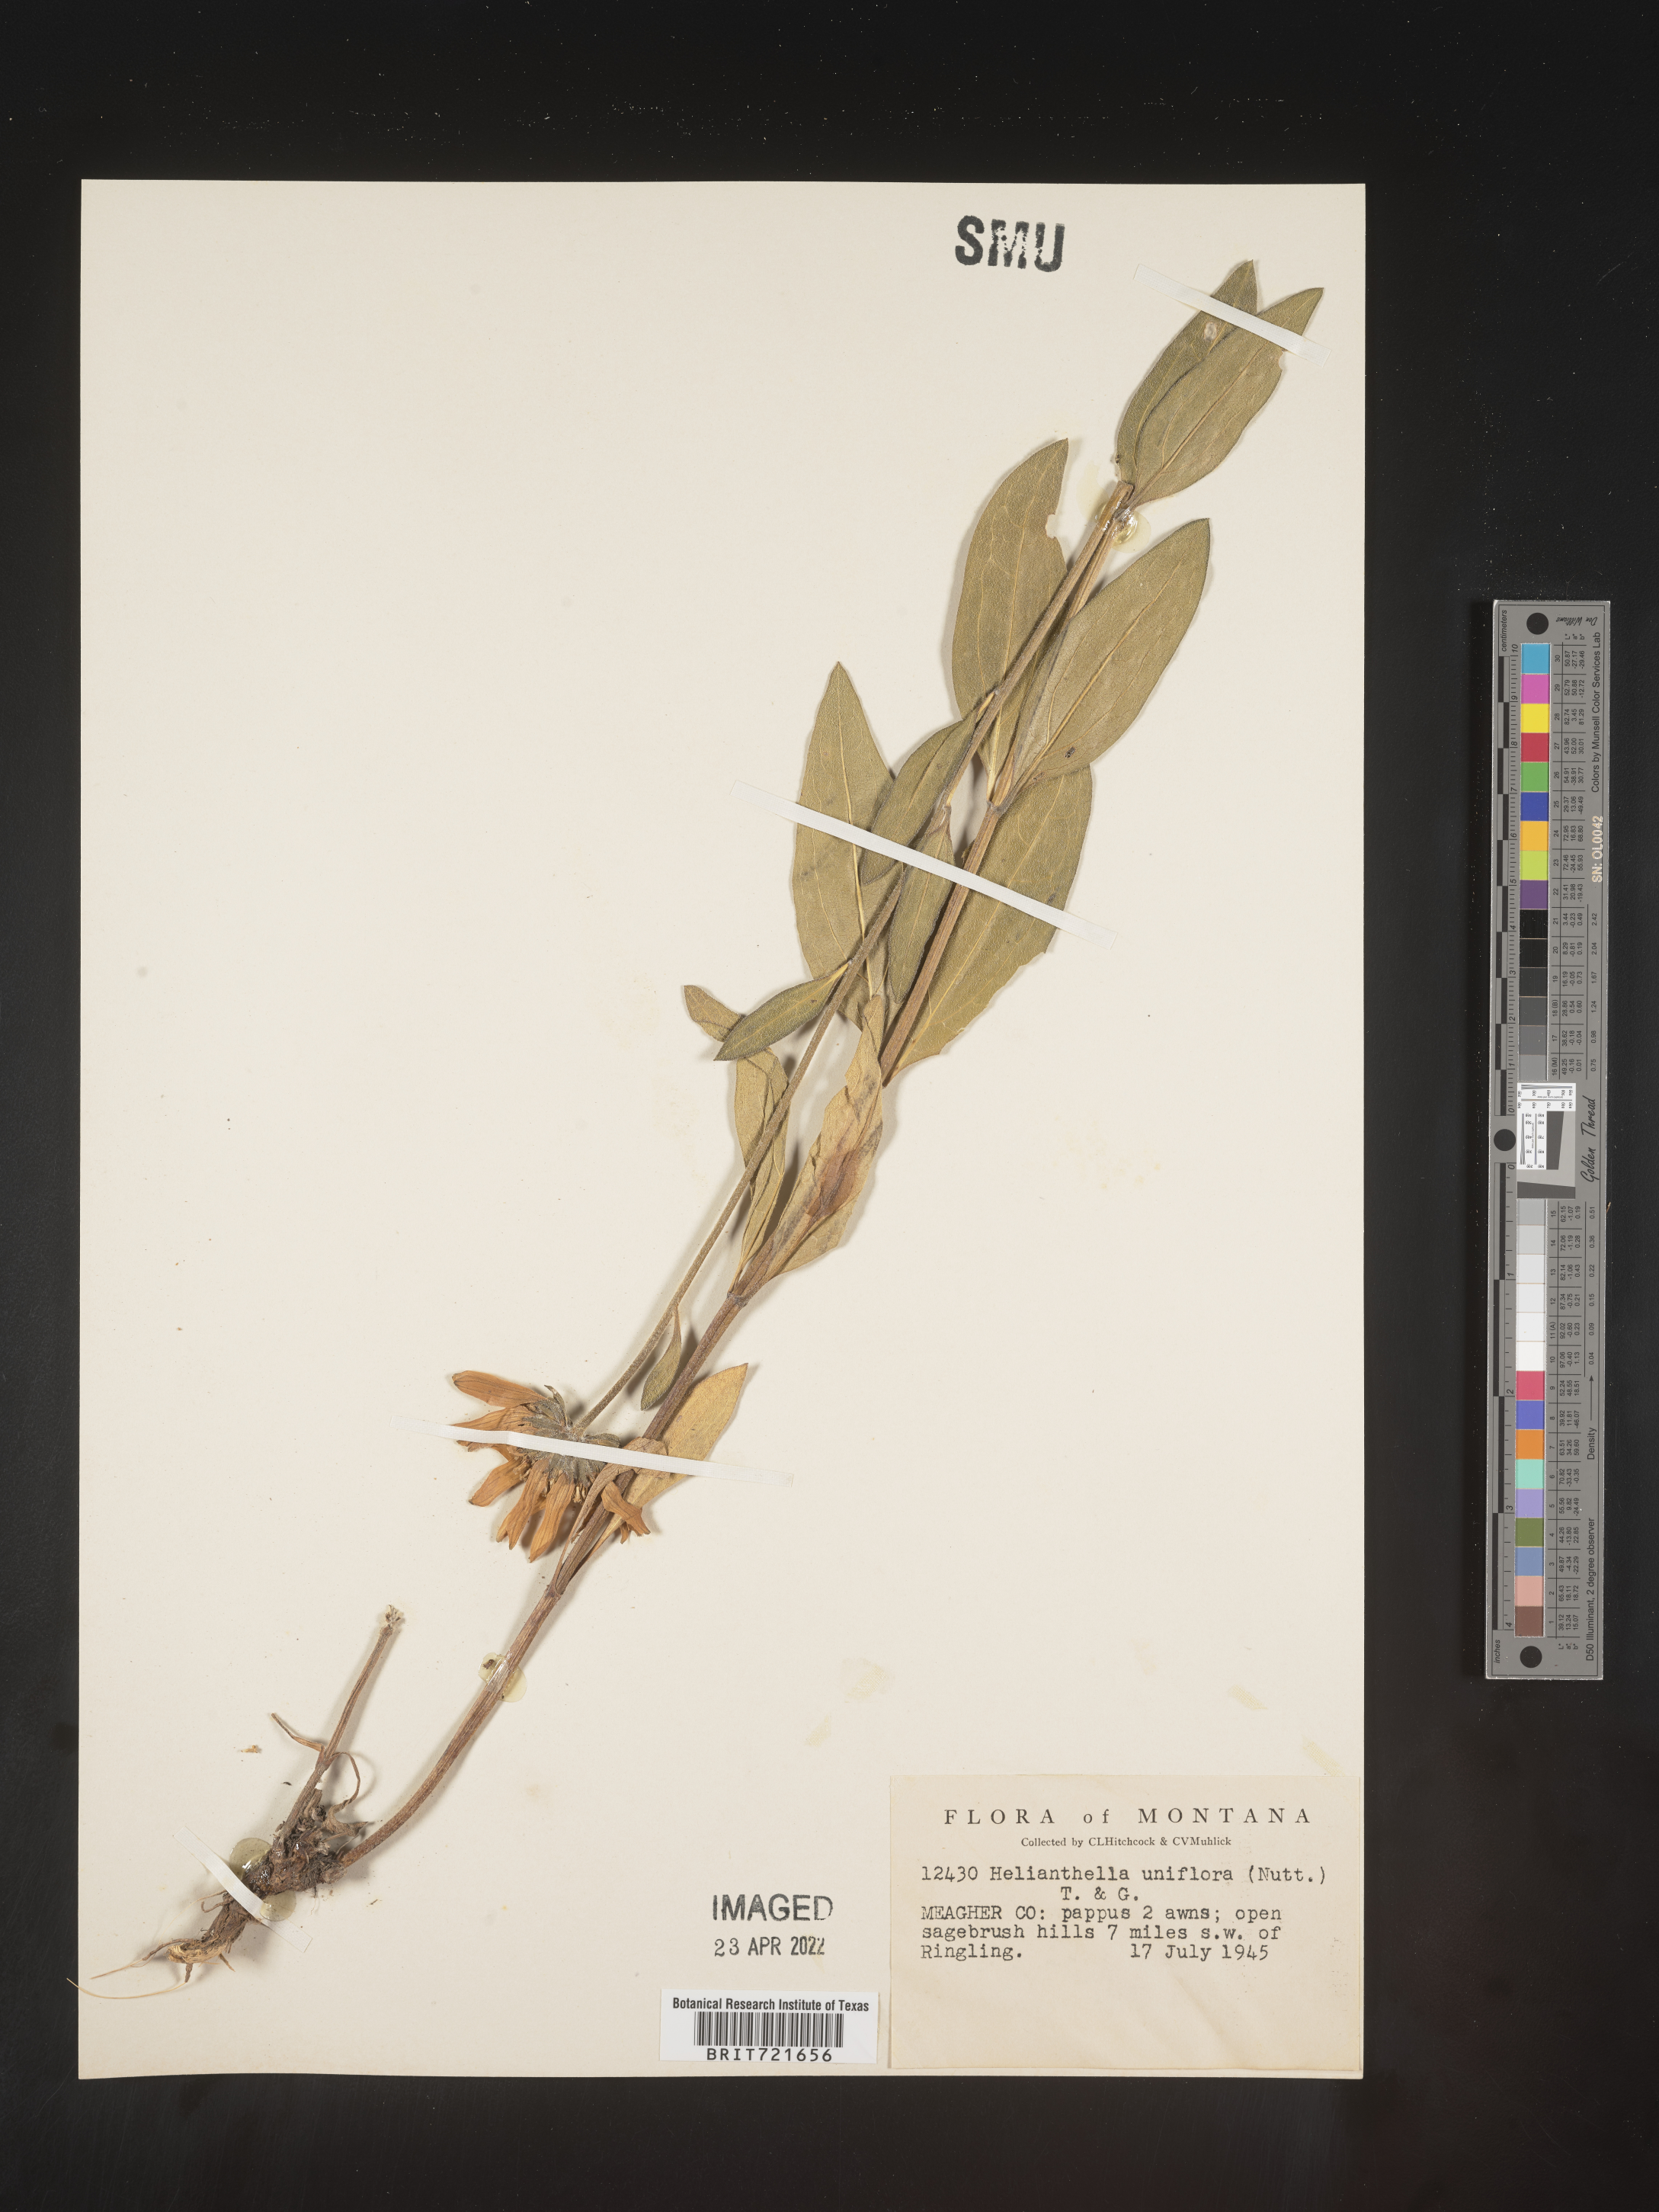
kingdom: Plantae
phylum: Tracheophyta
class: Magnoliopsida
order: Asterales
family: Asteraceae
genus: Helianthella
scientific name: Helianthella uniflora
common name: Rocky mountain dwarf sunflower
